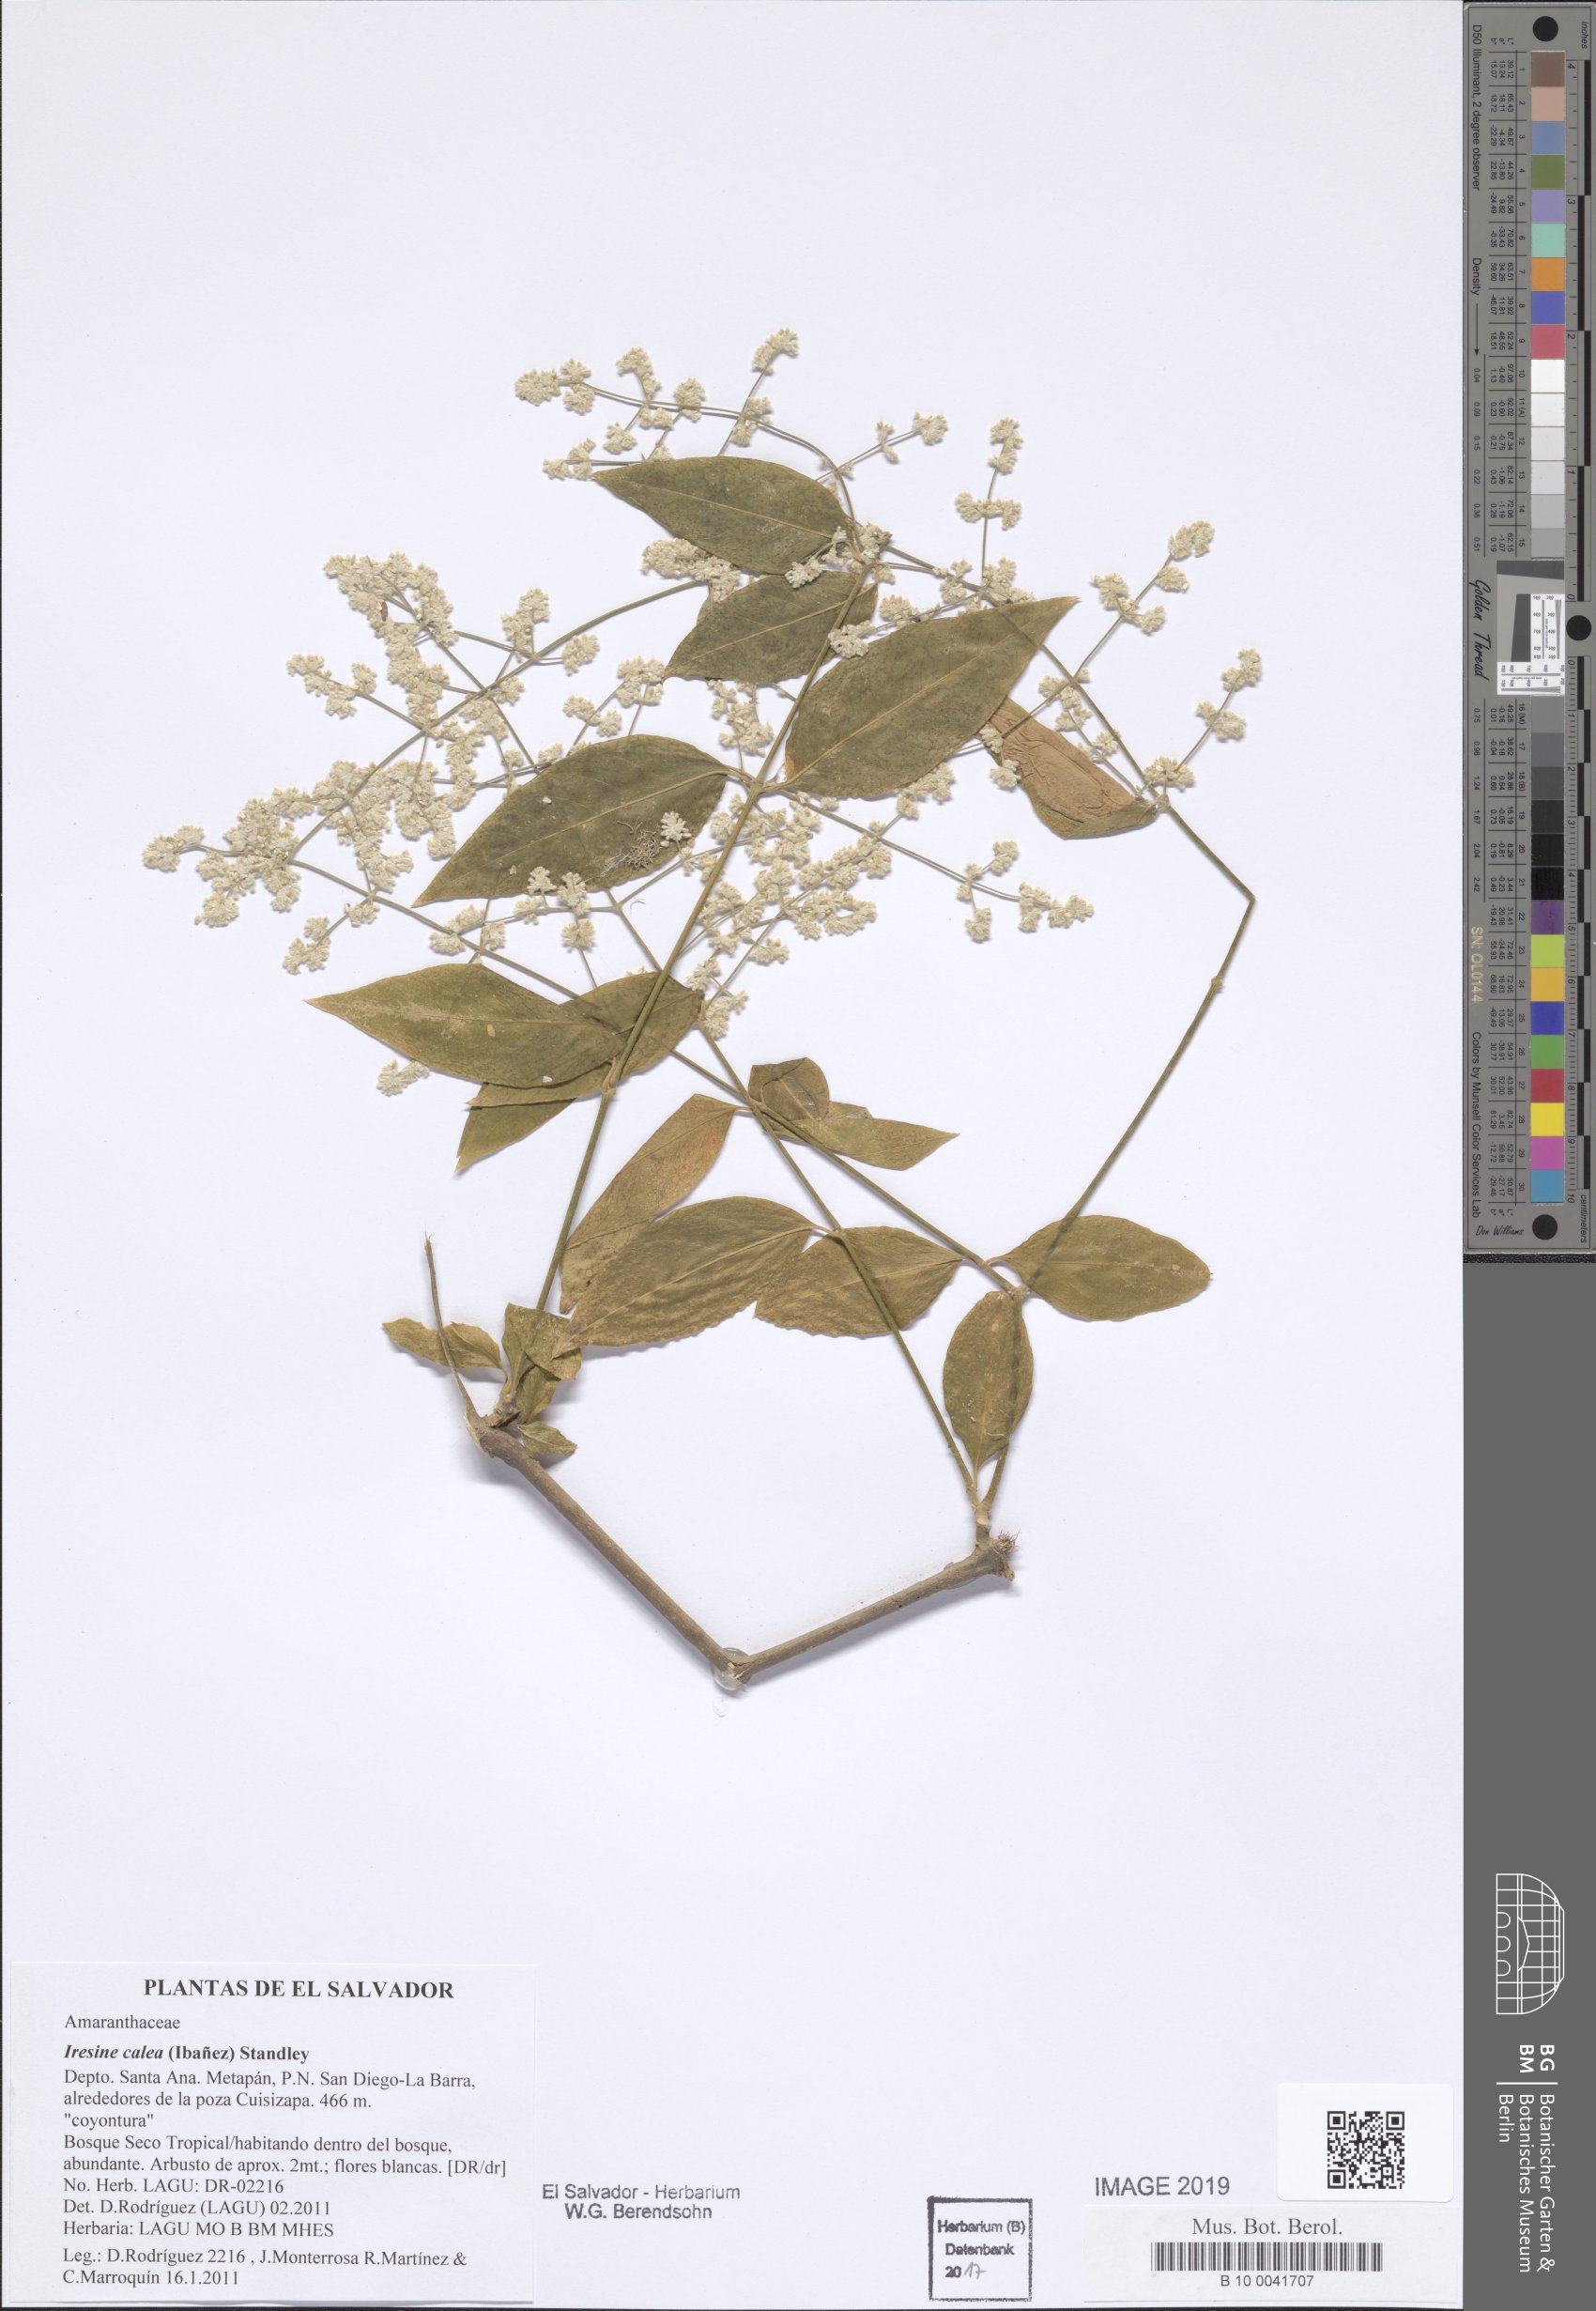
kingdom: Plantae
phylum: Tracheophyta
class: Magnoliopsida
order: Caryophyllales
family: Amaranthaceae
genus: Iresine
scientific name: Iresine latifolia
